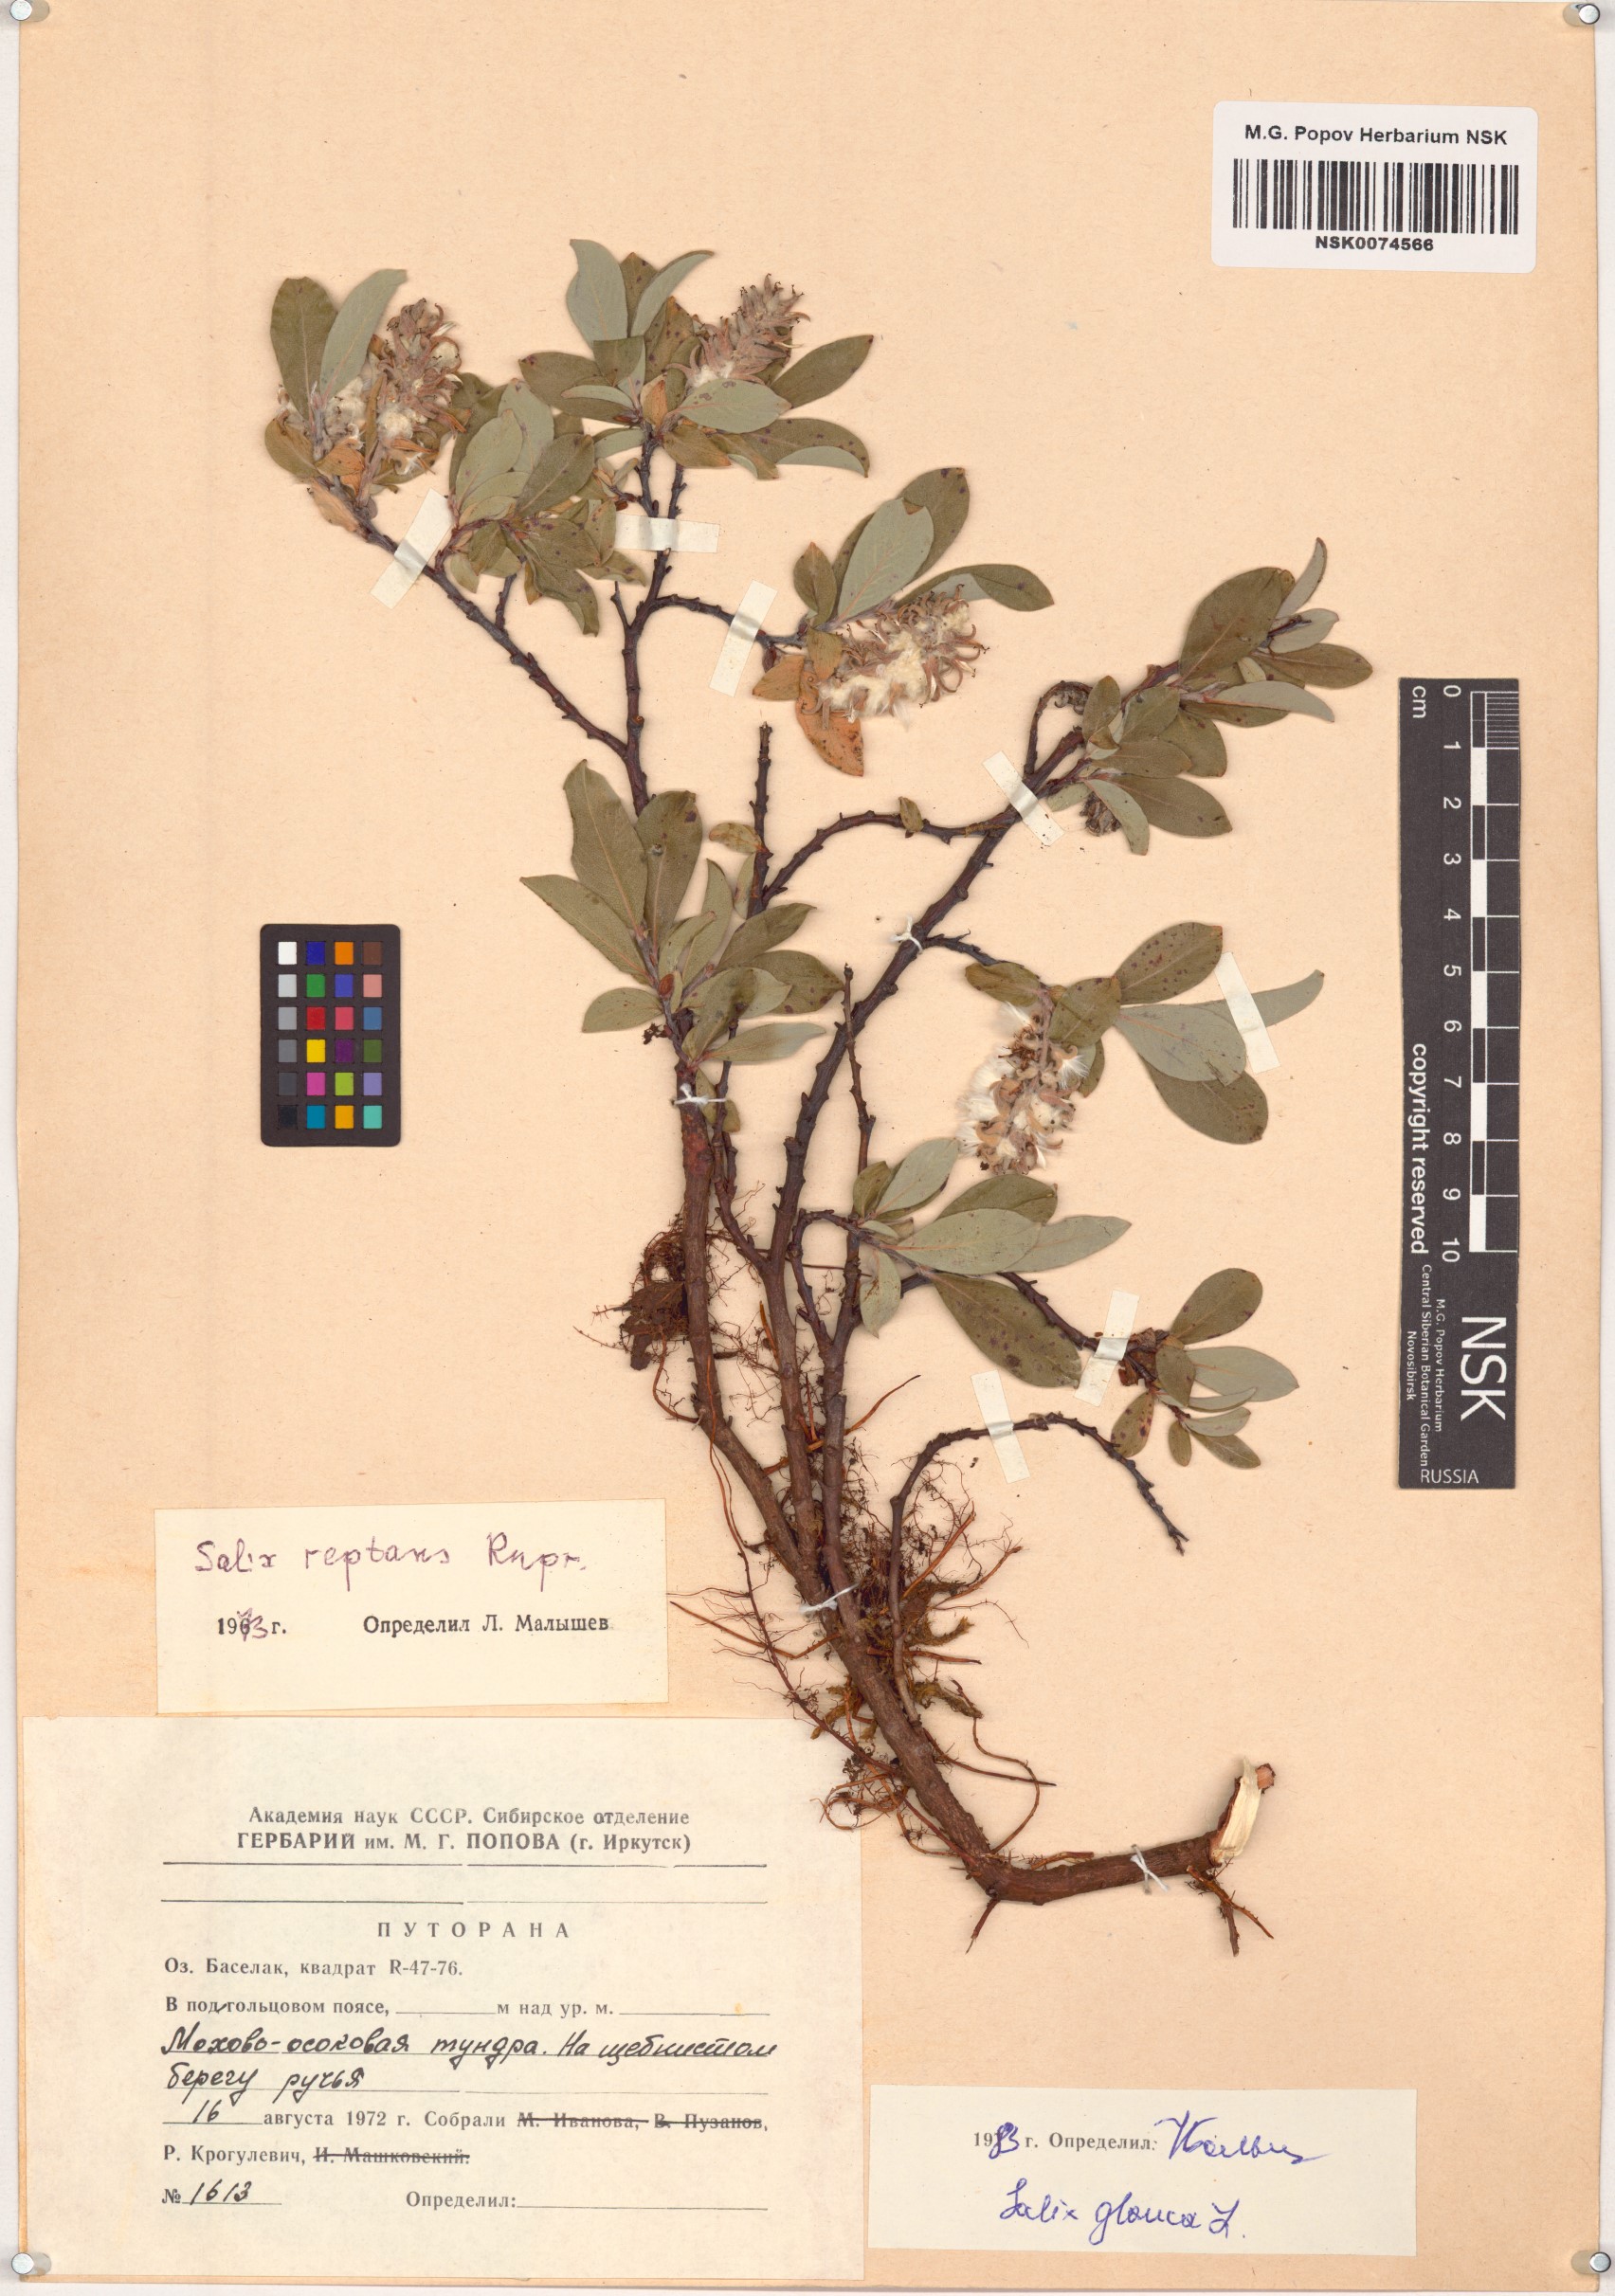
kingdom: Plantae
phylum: Tracheophyta
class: Magnoliopsida
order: Malpighiales
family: Salicaceae
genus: Salix
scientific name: Salix glauca
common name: Glaucous willow
